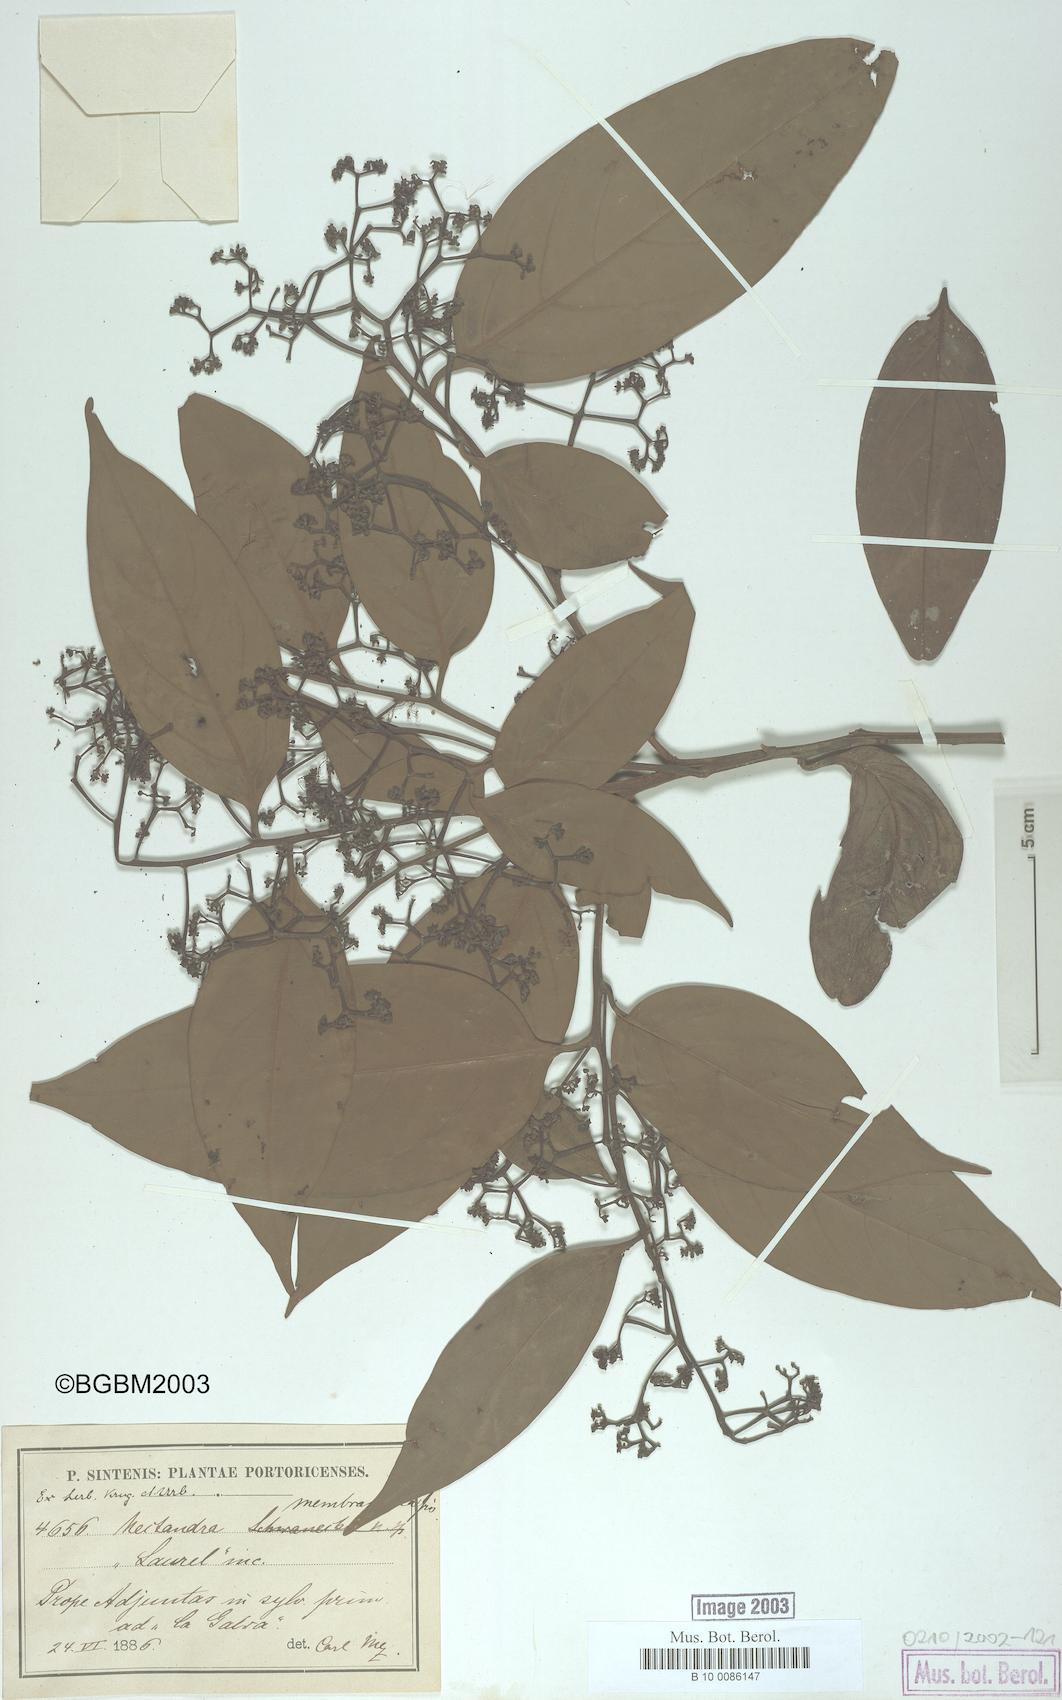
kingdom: Plantae
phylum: Tracheophyta
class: Magnoliopsida
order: Laurales
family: Lauraceae
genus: Nectandra
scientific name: Nectandra membranacea
